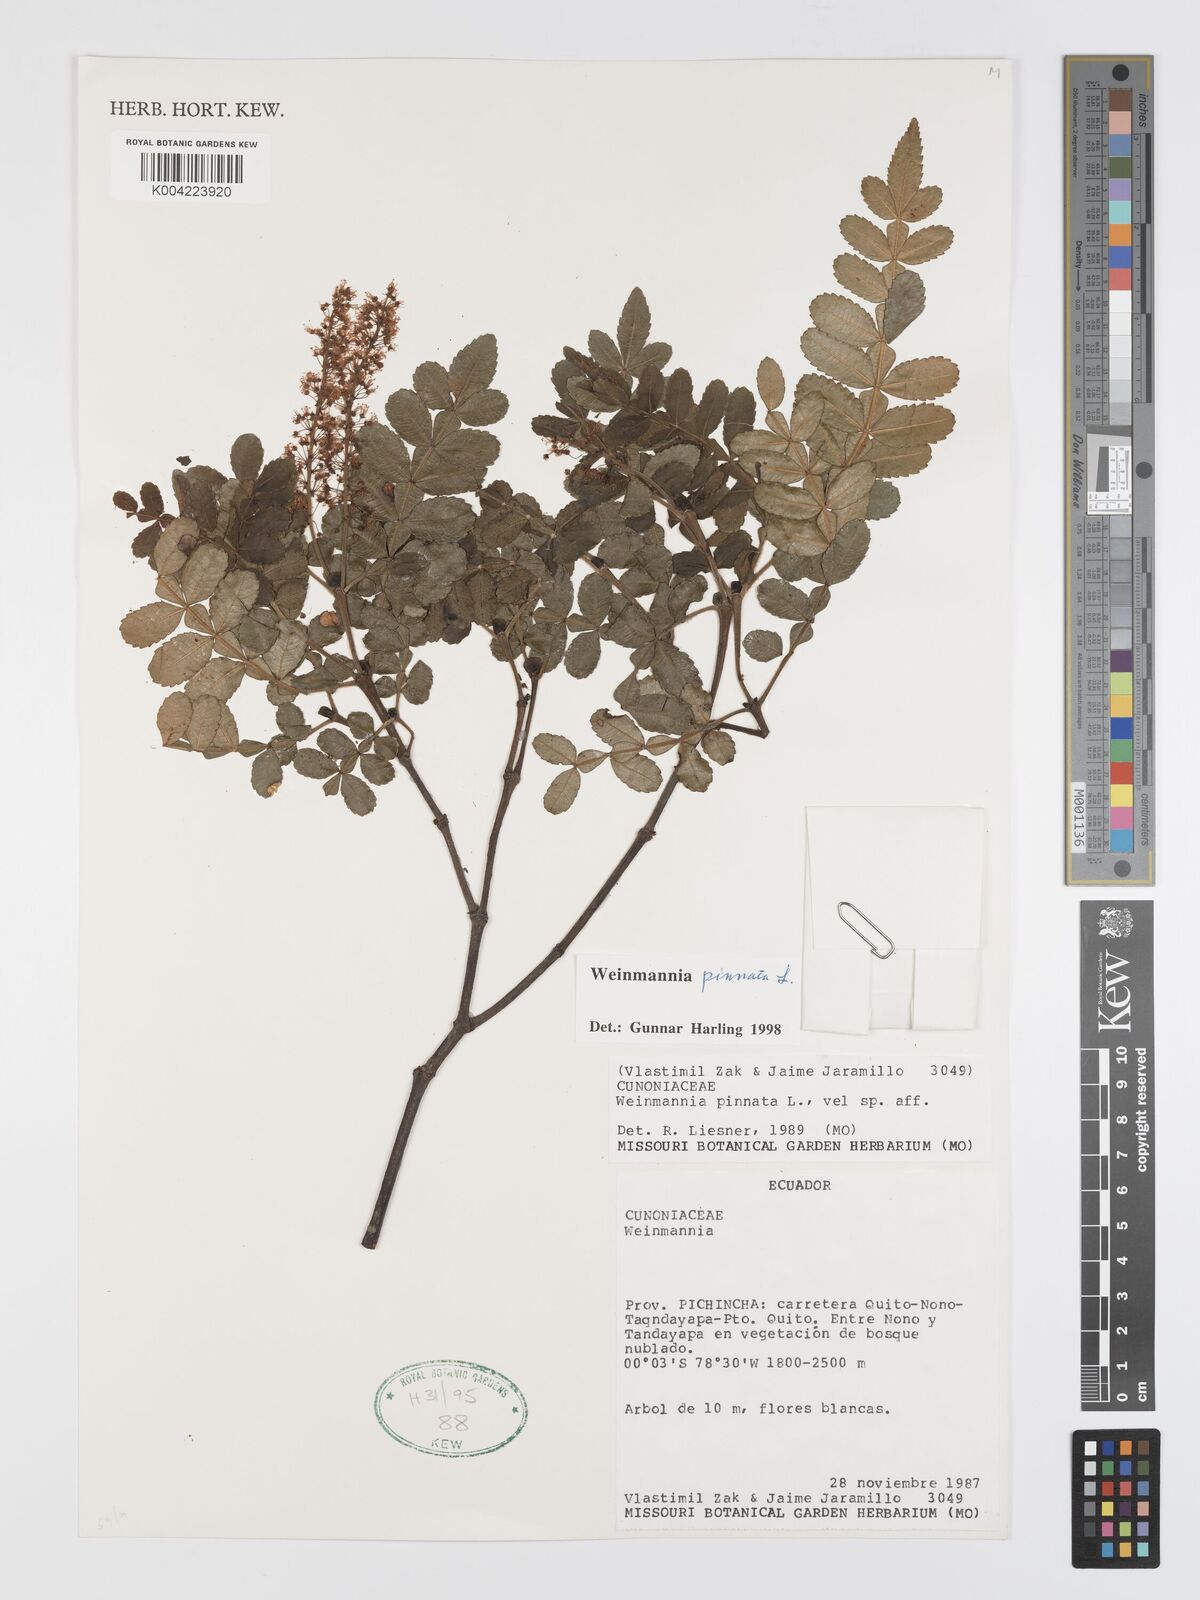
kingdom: Plantae
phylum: Tracheophyta
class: Magnoliopsida
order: Oxalidales
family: Cunoniaceae
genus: Weinmannia
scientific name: Weinmannia pinnata
